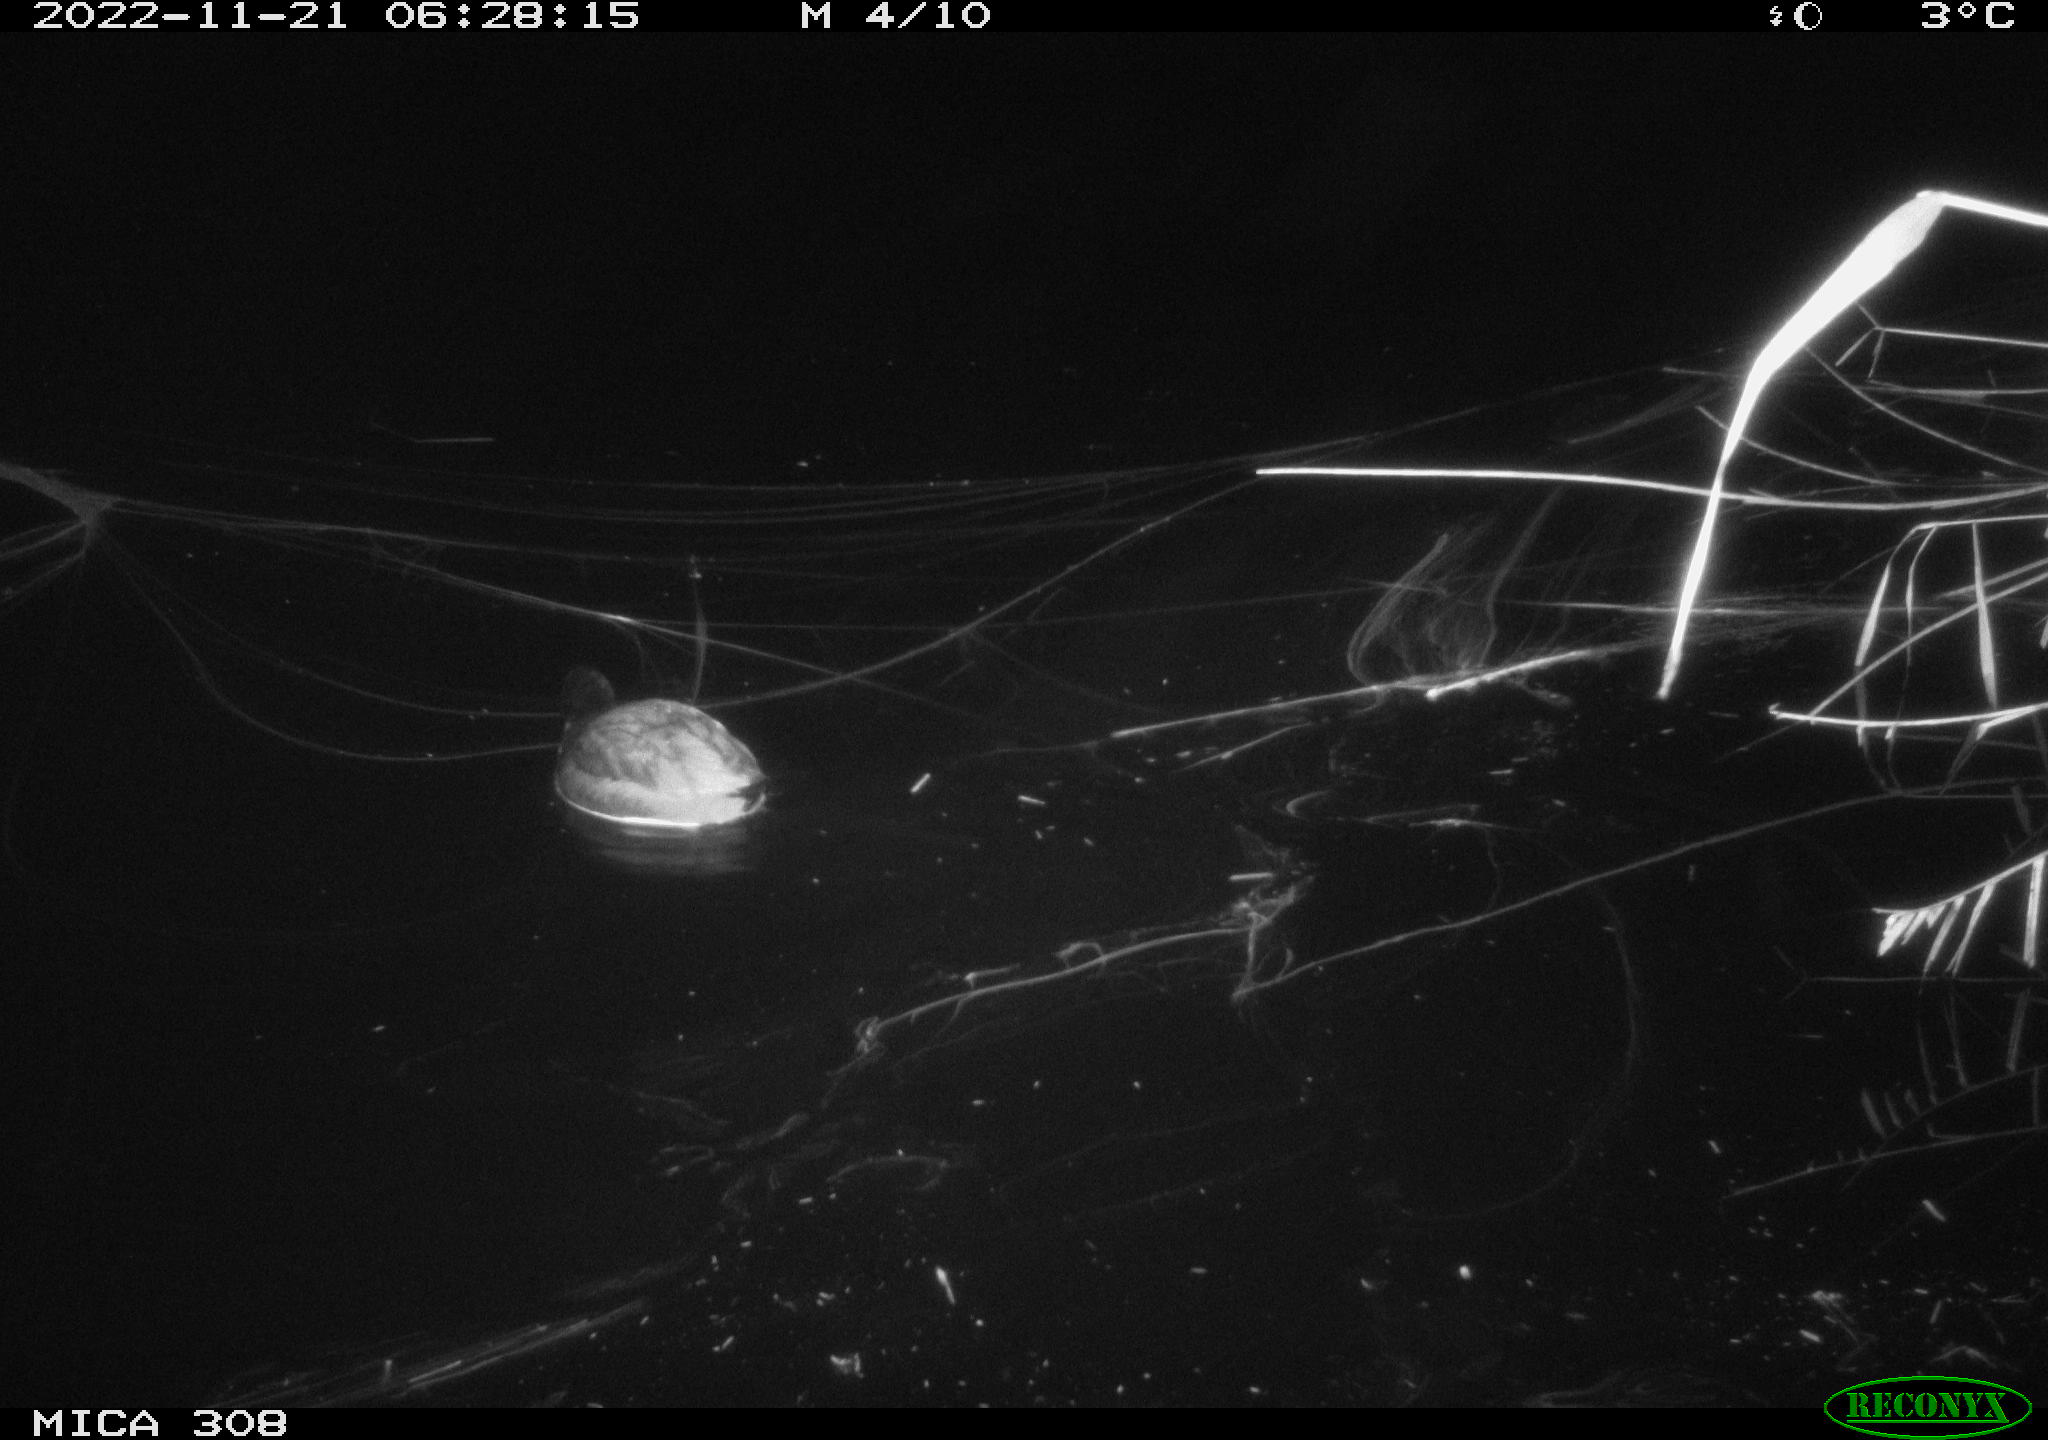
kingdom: Animalia
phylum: Chordata
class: Aves
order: Gruiformes
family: Rallidae
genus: Fulica
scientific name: Fulica atra
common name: Eurasian coot
